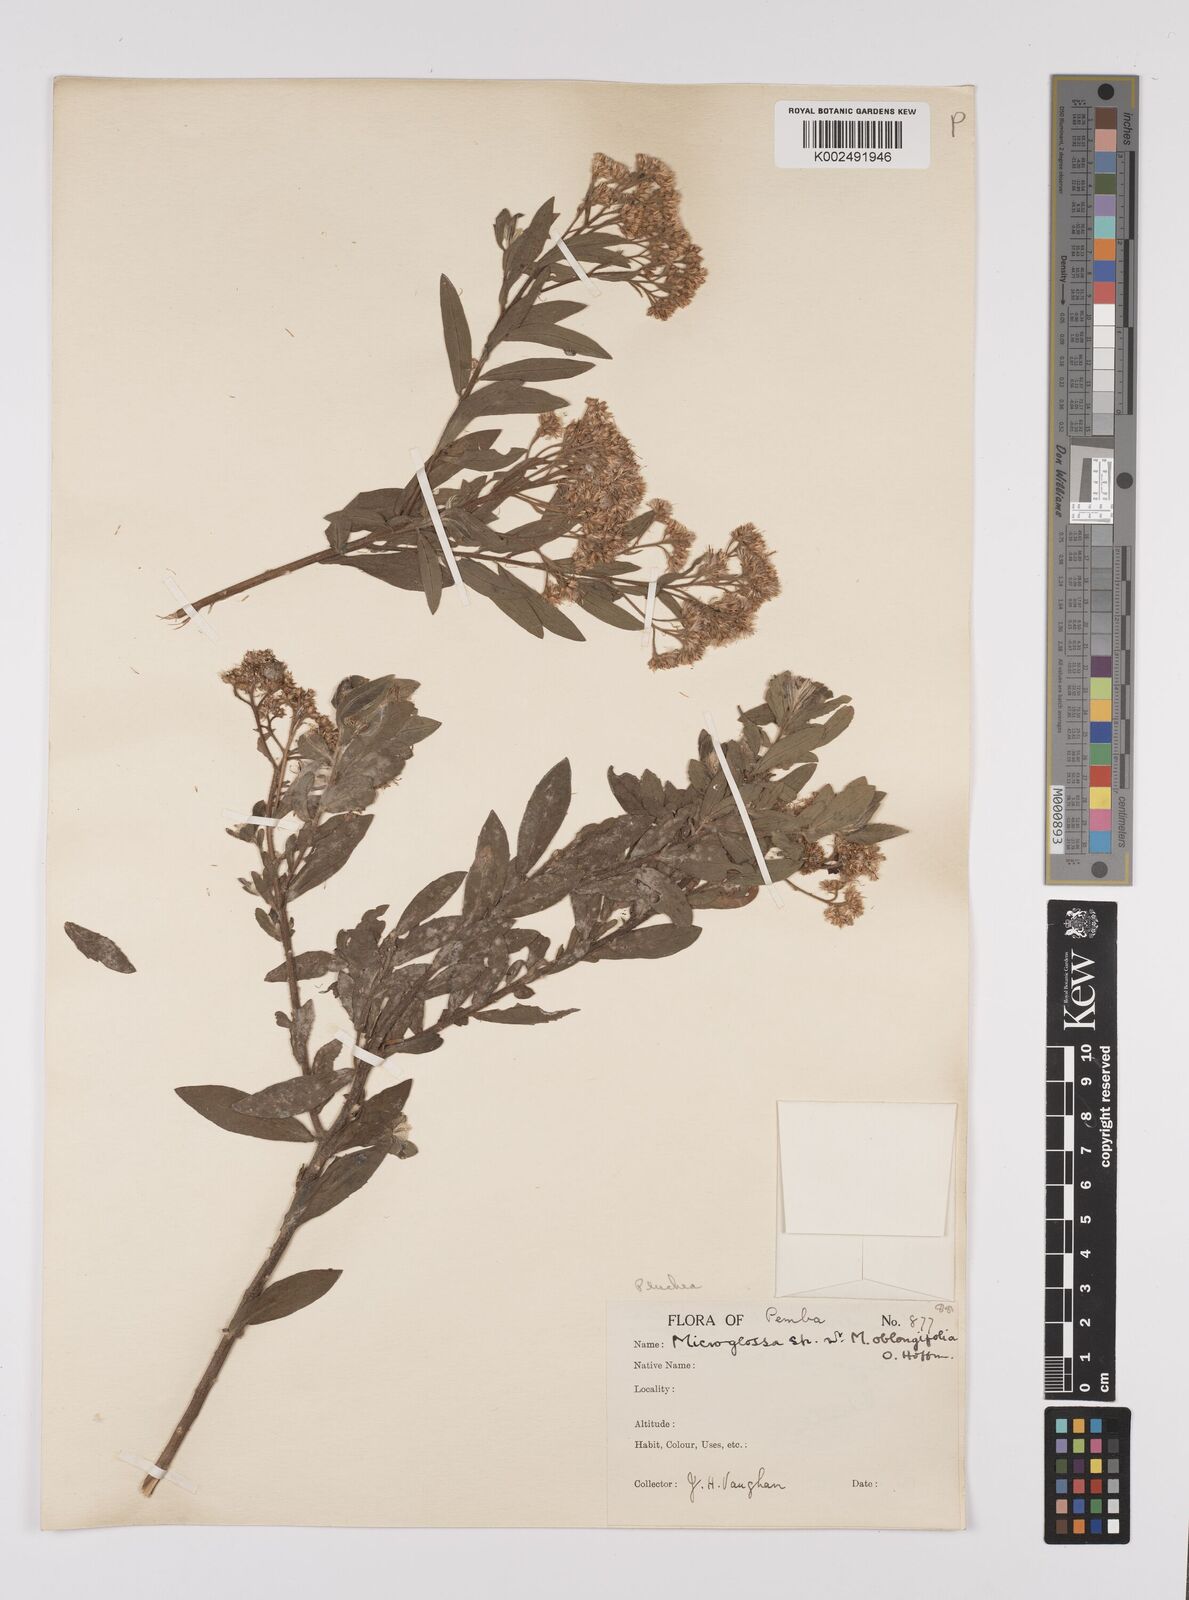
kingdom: Plantae
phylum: Tracheophyta
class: Magnoliopsida
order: Asterales
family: Asteraceae
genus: Pluchea
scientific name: Pluchea dioscoridis
